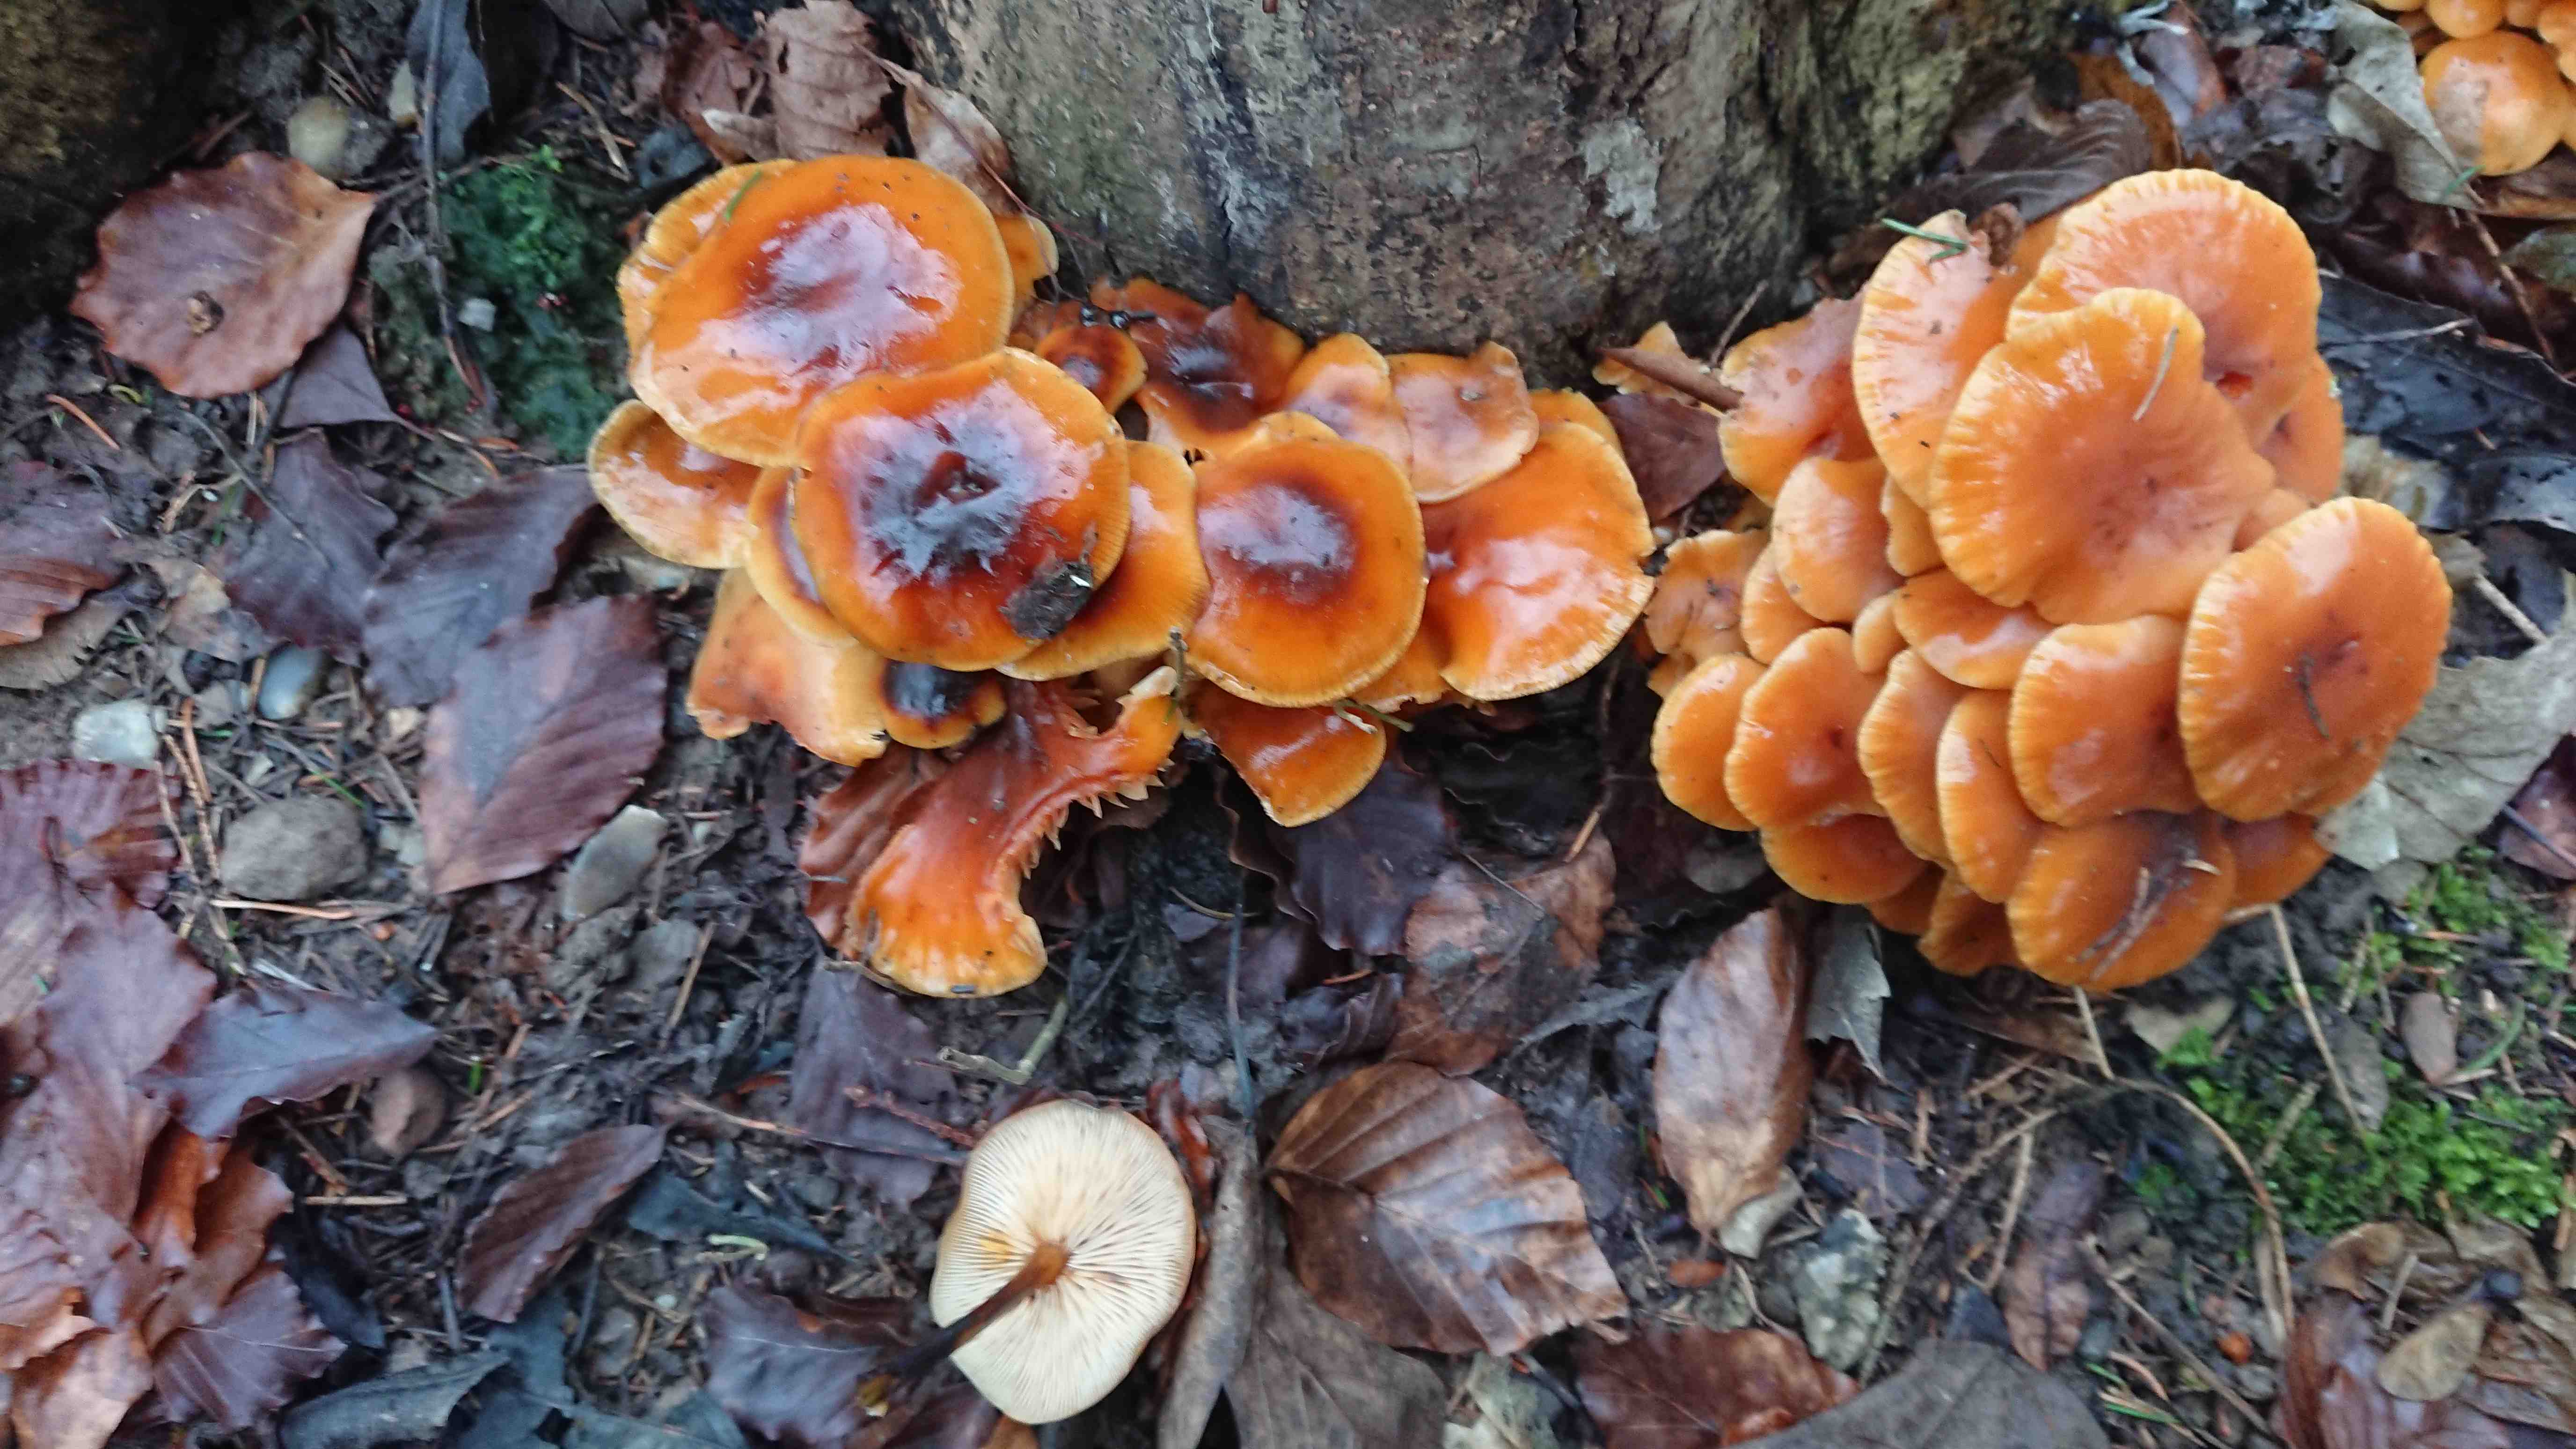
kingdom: Fungi
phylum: Basidiomycota
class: Agaricomycetes
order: Agaricales
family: Physalacriaceae
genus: Flammulina
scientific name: Flammulina
